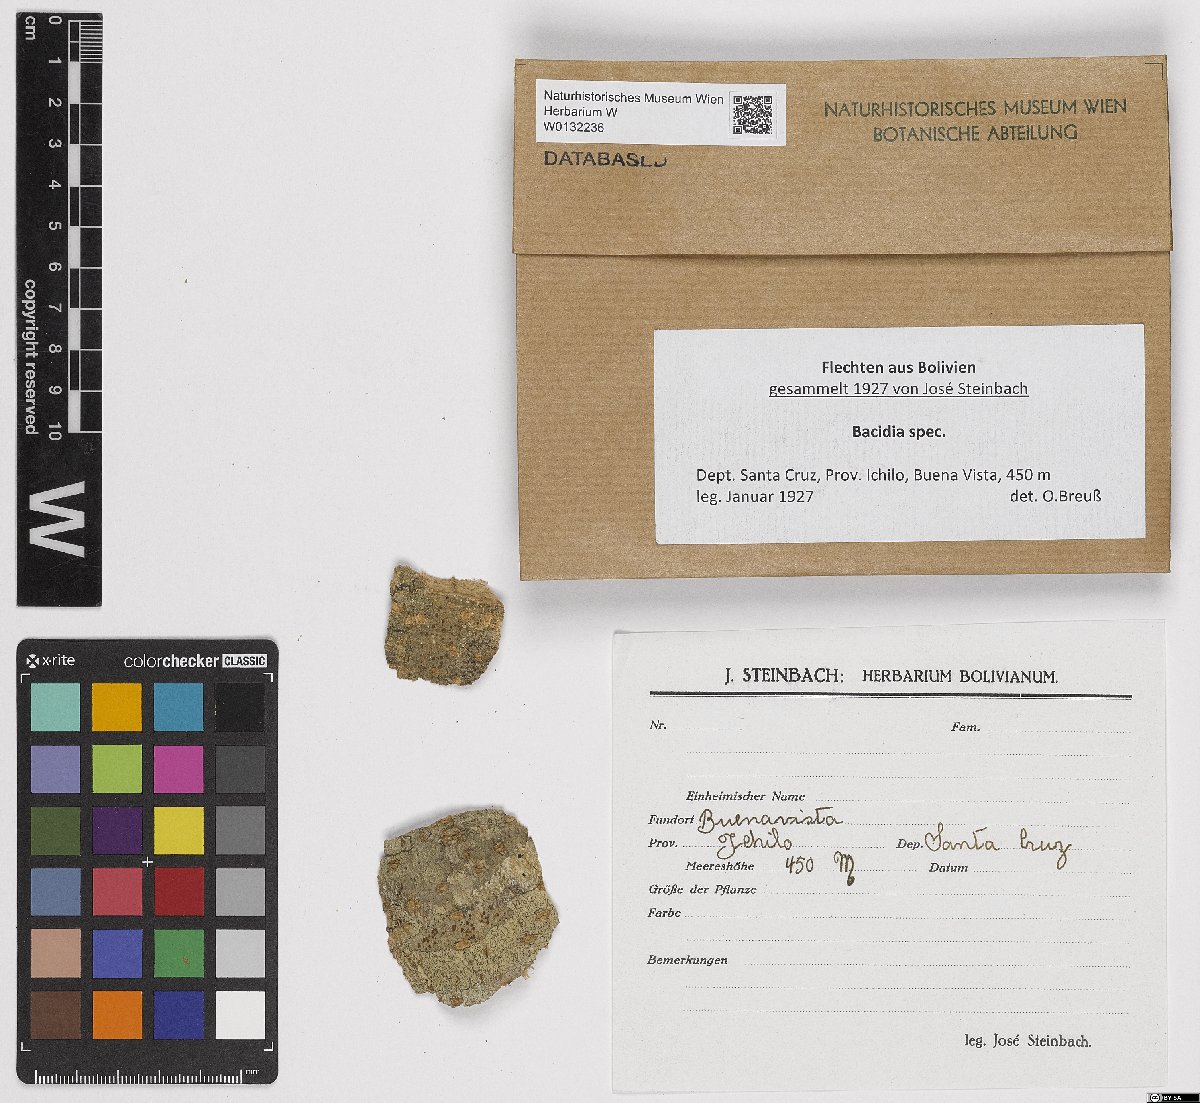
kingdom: Fungi
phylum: Ascomycota
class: Lecanoromycetes
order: Lecanorales
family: Ramalinaceae
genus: Bacidia
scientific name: Bacidia
